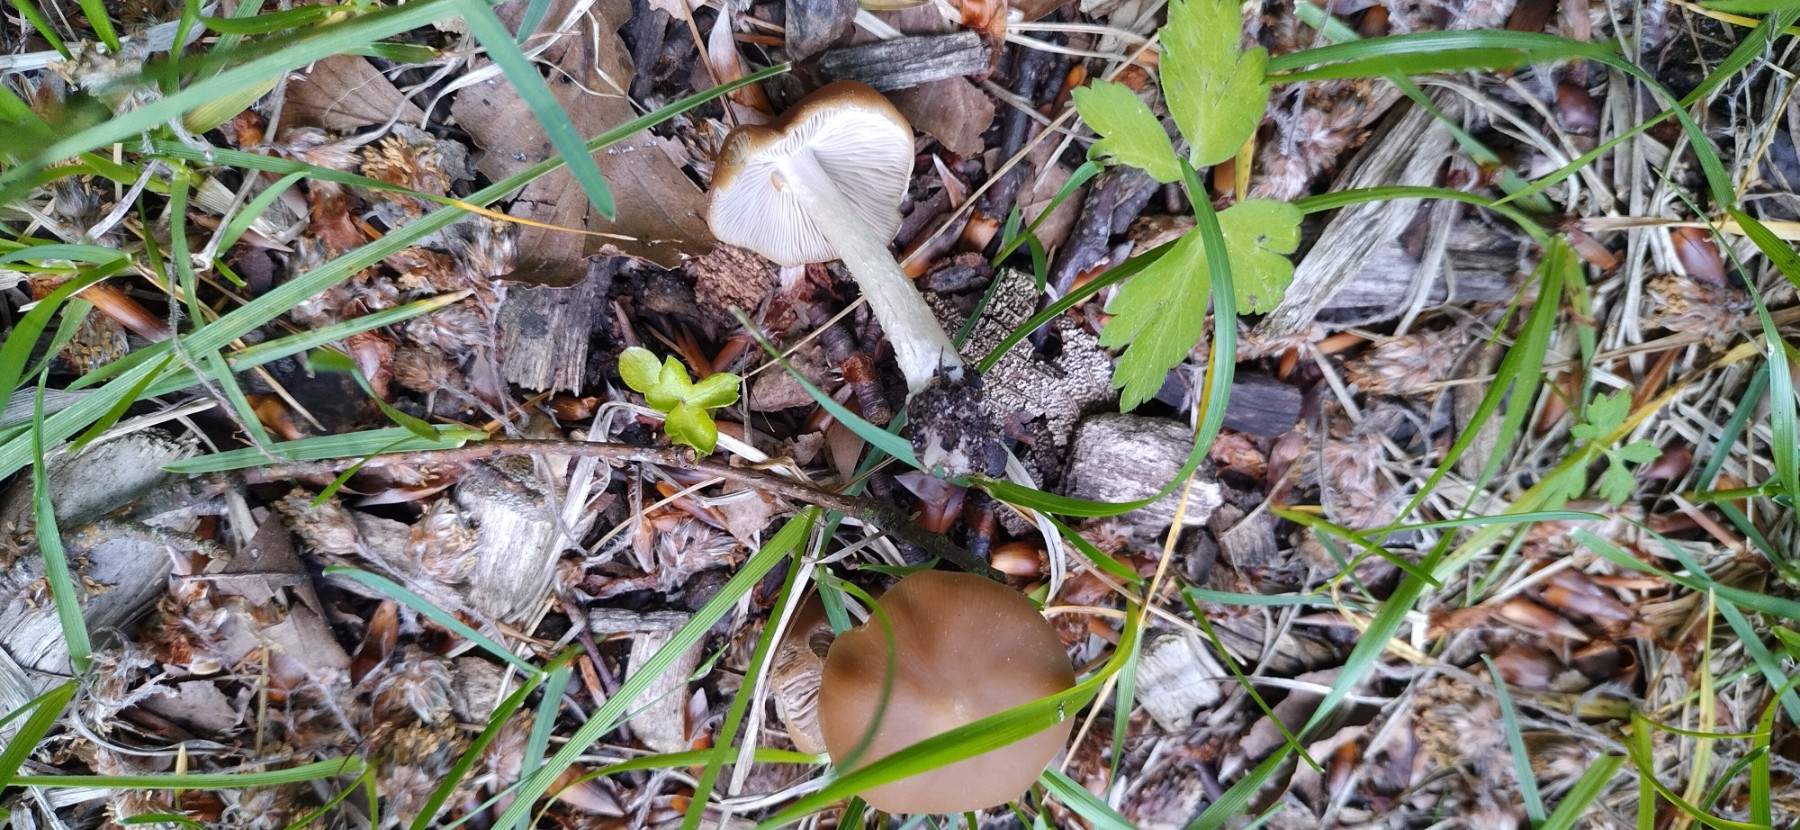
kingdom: Fungi
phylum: Basidiomycota
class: Agaricomycetes
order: Agaricales
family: Psathyrellaceae
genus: Psathyrella
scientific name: Psathyrella spadiceogrisea
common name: gråbrun mørkhat
